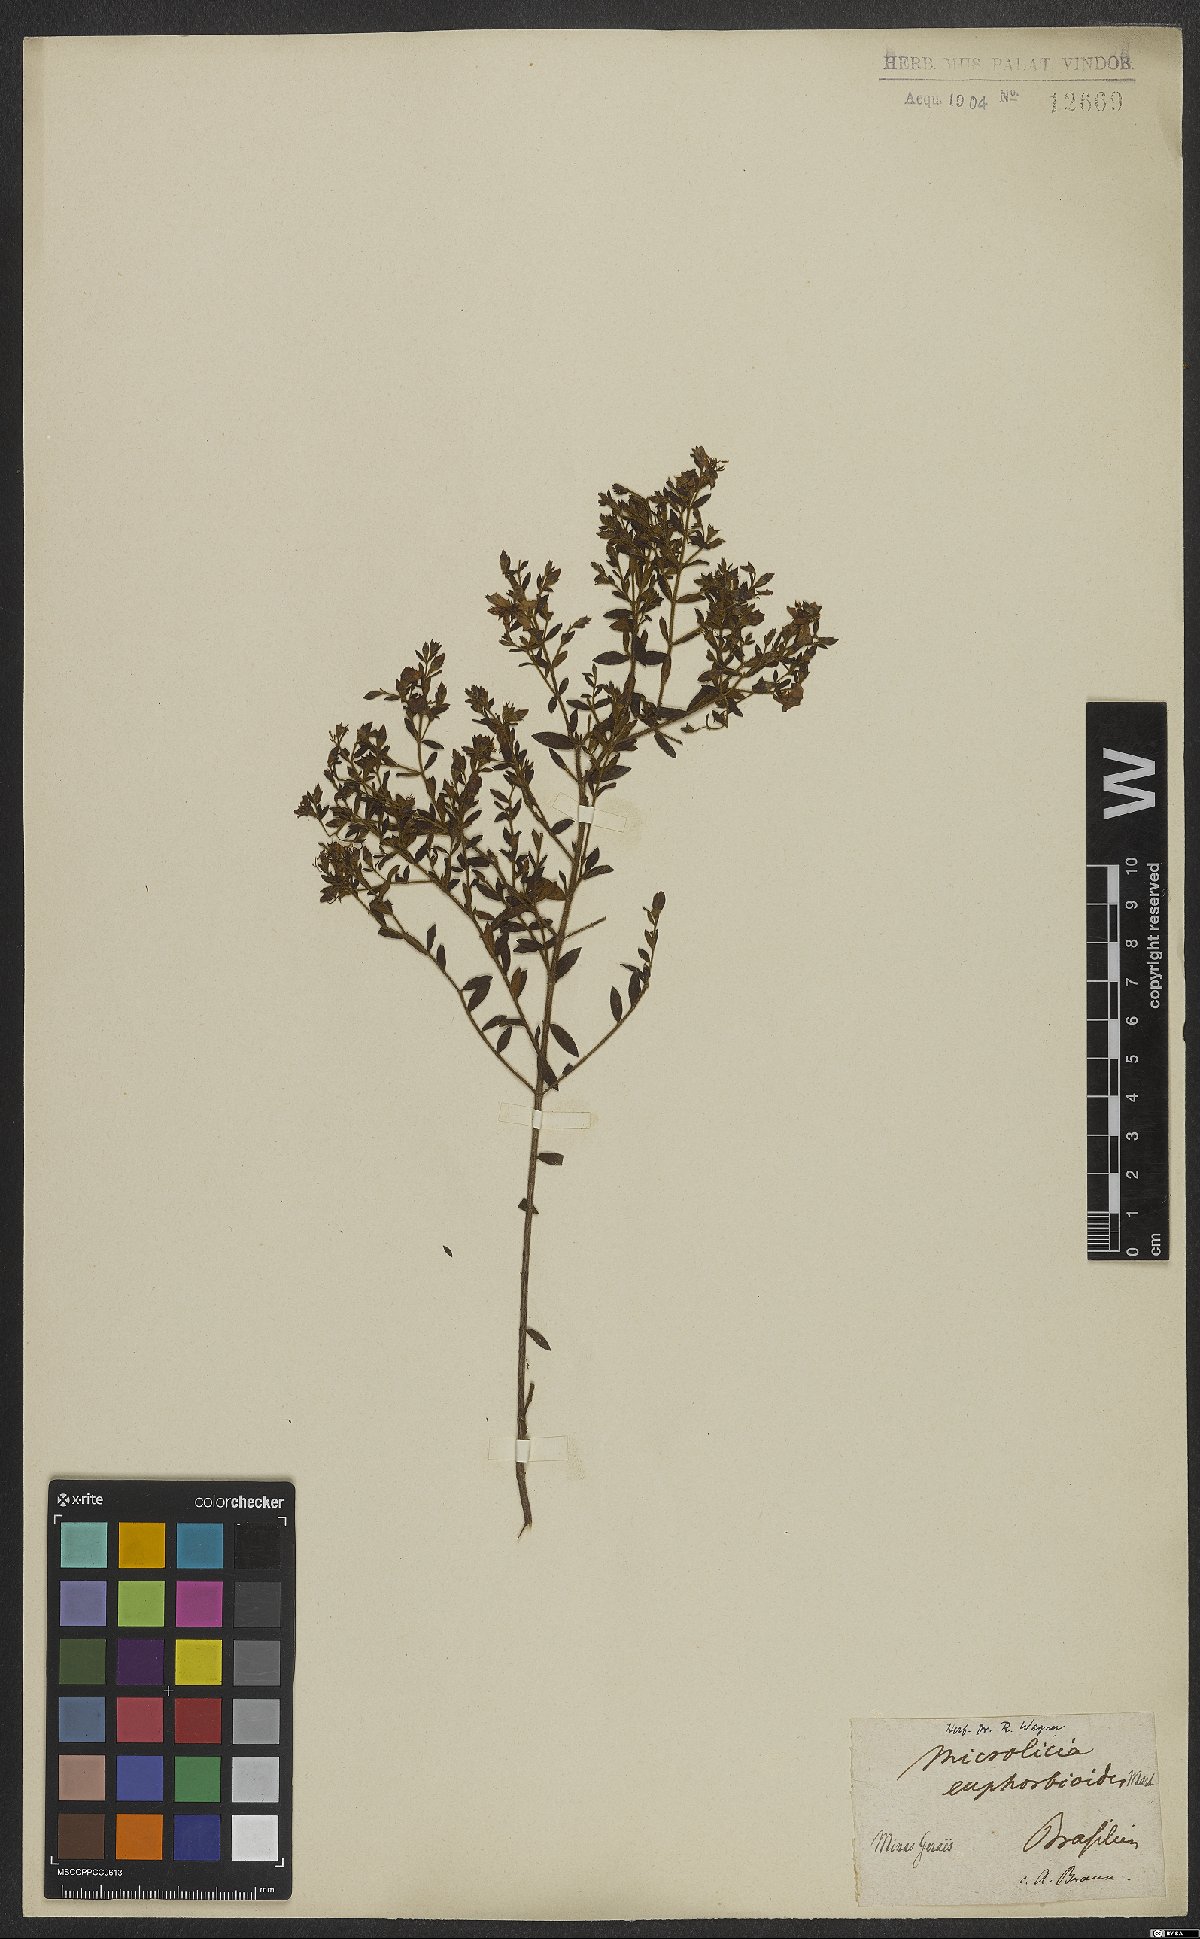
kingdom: Plantae
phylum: Tracheophyta
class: Magnoliopsida
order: Myrtales
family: Melastomataceae
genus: Microlicia
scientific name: Microlicia euphorbioides
